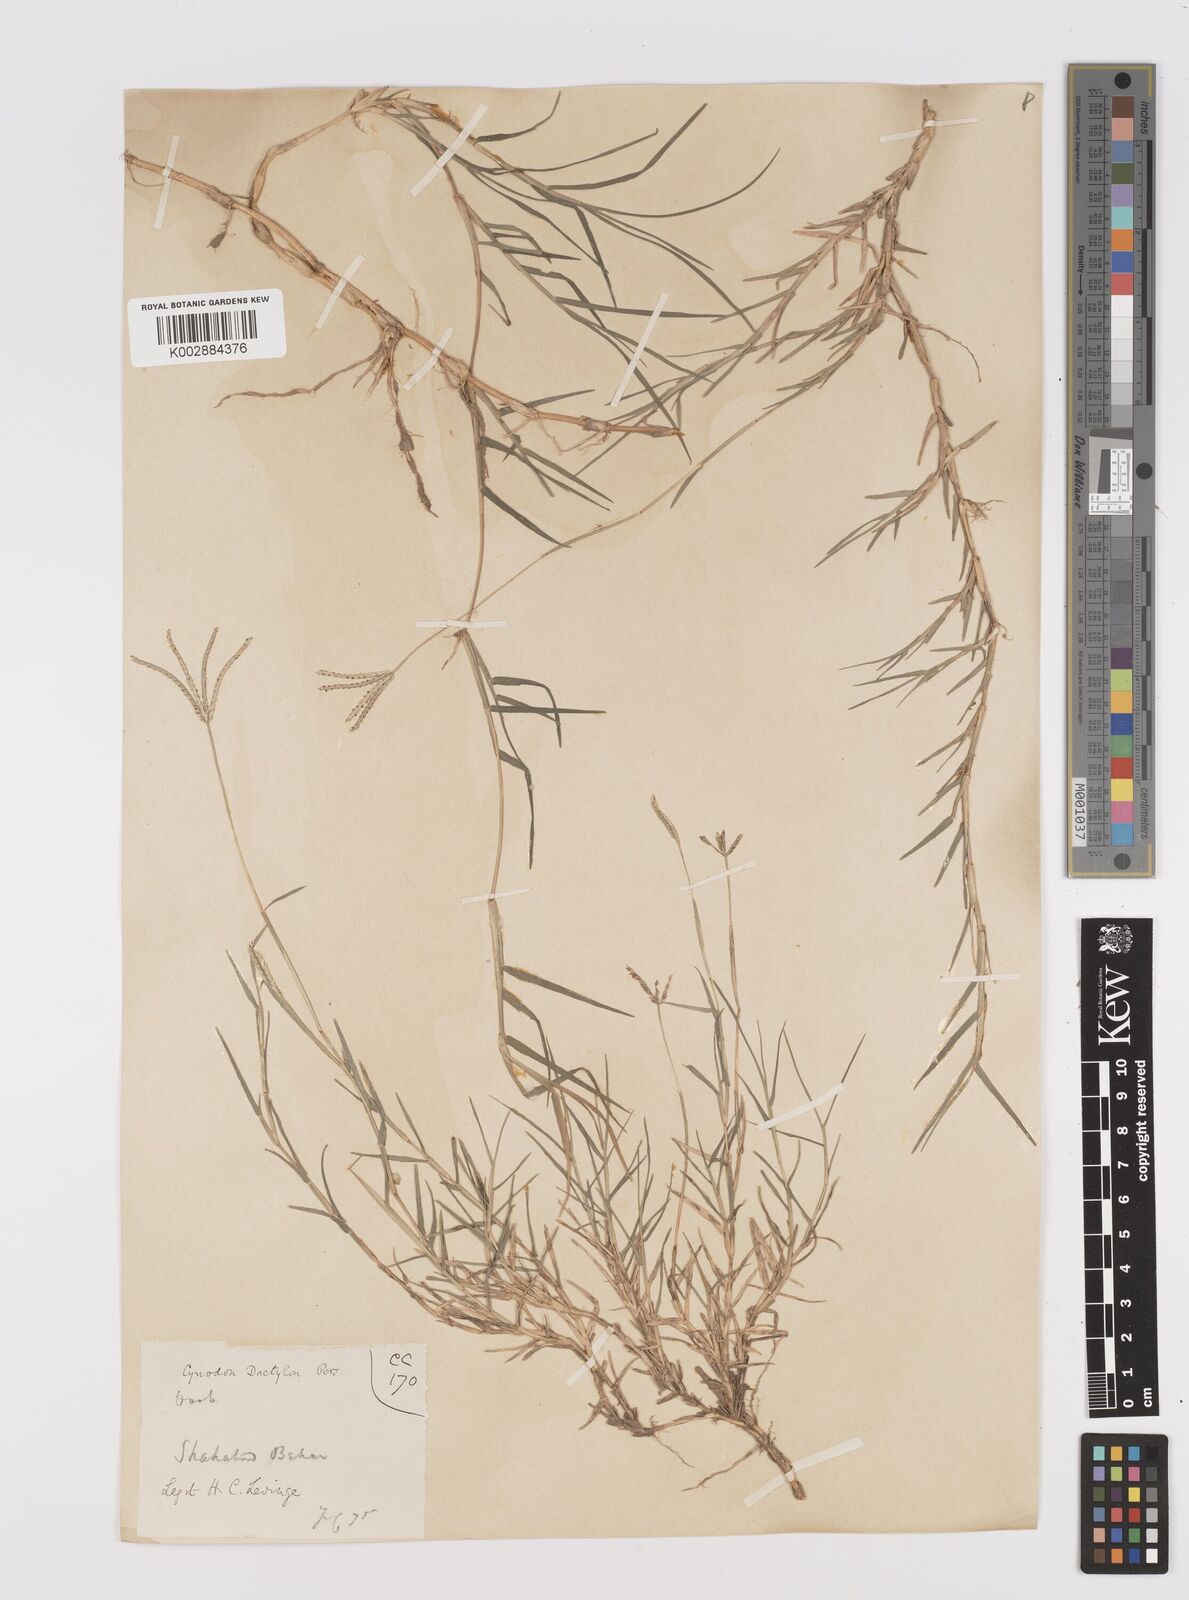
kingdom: Plantae
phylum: Tracheophyta
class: Liliopsida
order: Poales
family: Poaceae
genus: Cynodon
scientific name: Cynodon dactylon
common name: Bermuda grass
